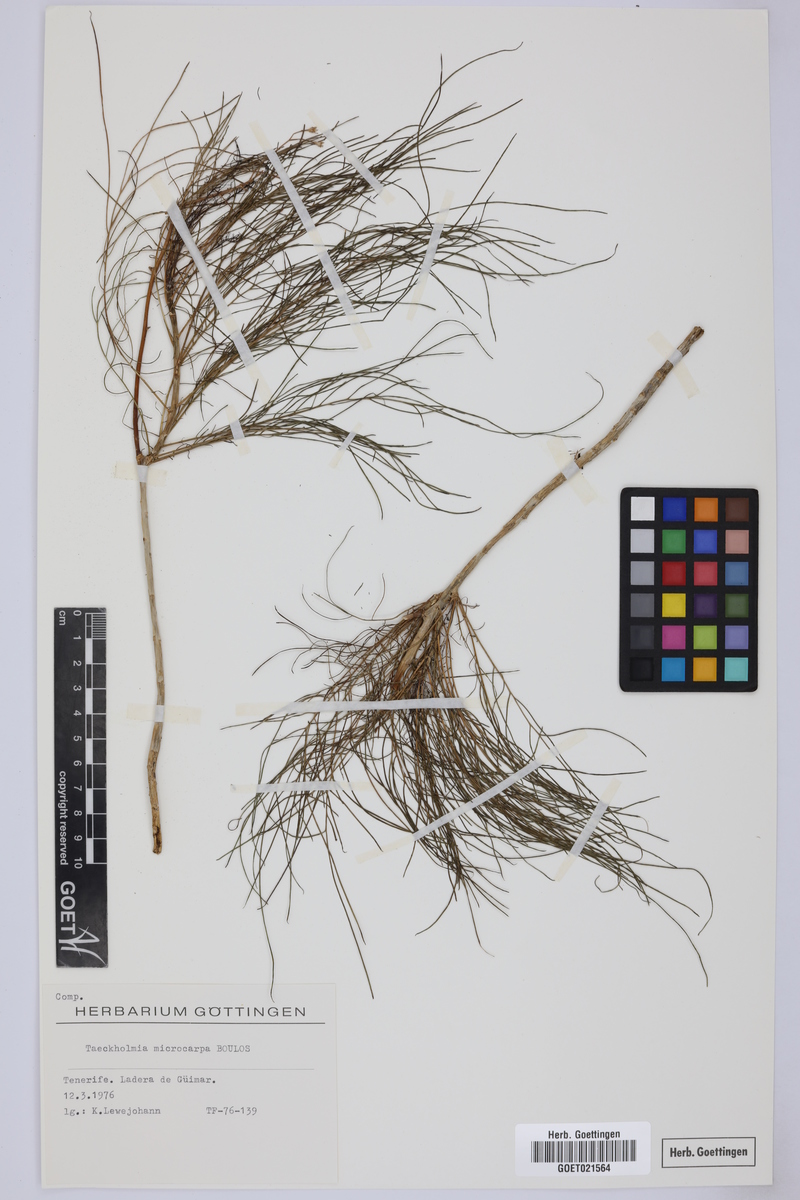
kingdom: Plantae
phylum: Tracheophyta
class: Magnoliopsida
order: Asterales
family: Asteraceae
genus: Sonchus
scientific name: Sonchus microcarpus
